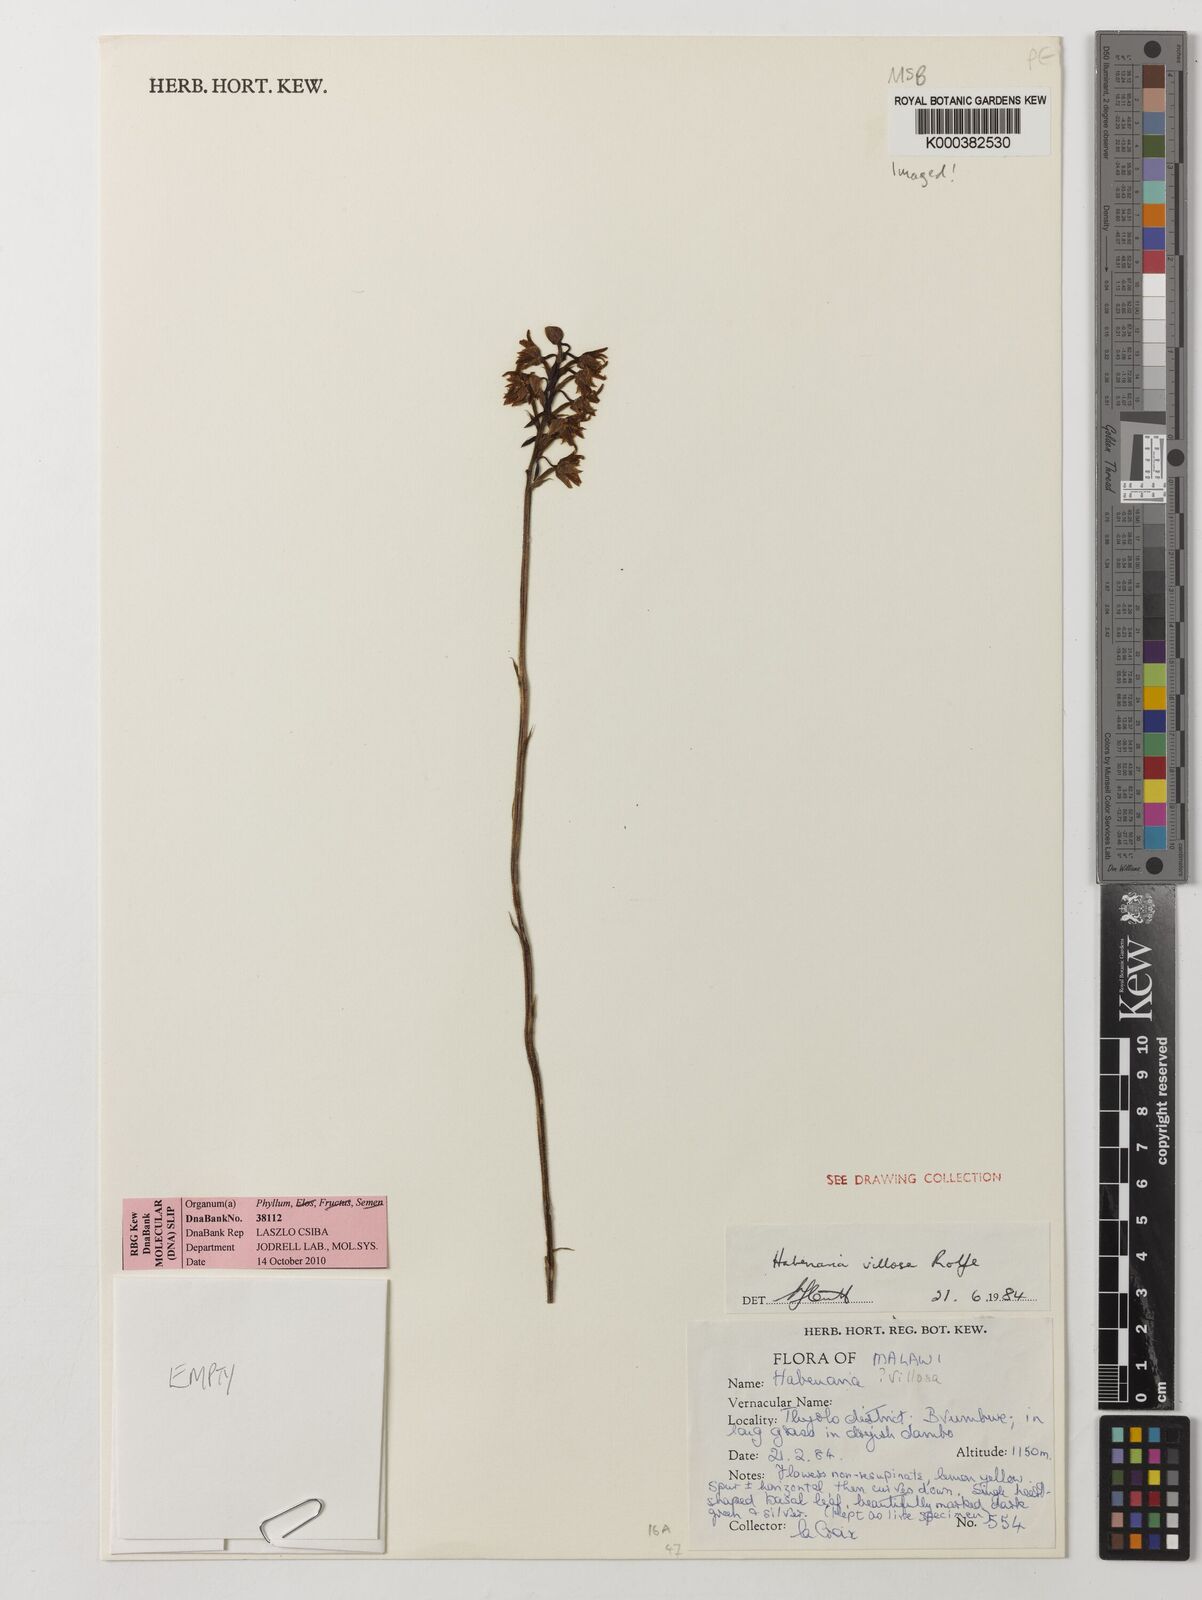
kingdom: Plantae
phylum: Tracheophyta
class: Liliopsida
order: Asparagales
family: Orchidaceae
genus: Habenaria
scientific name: Habenaria villosa
